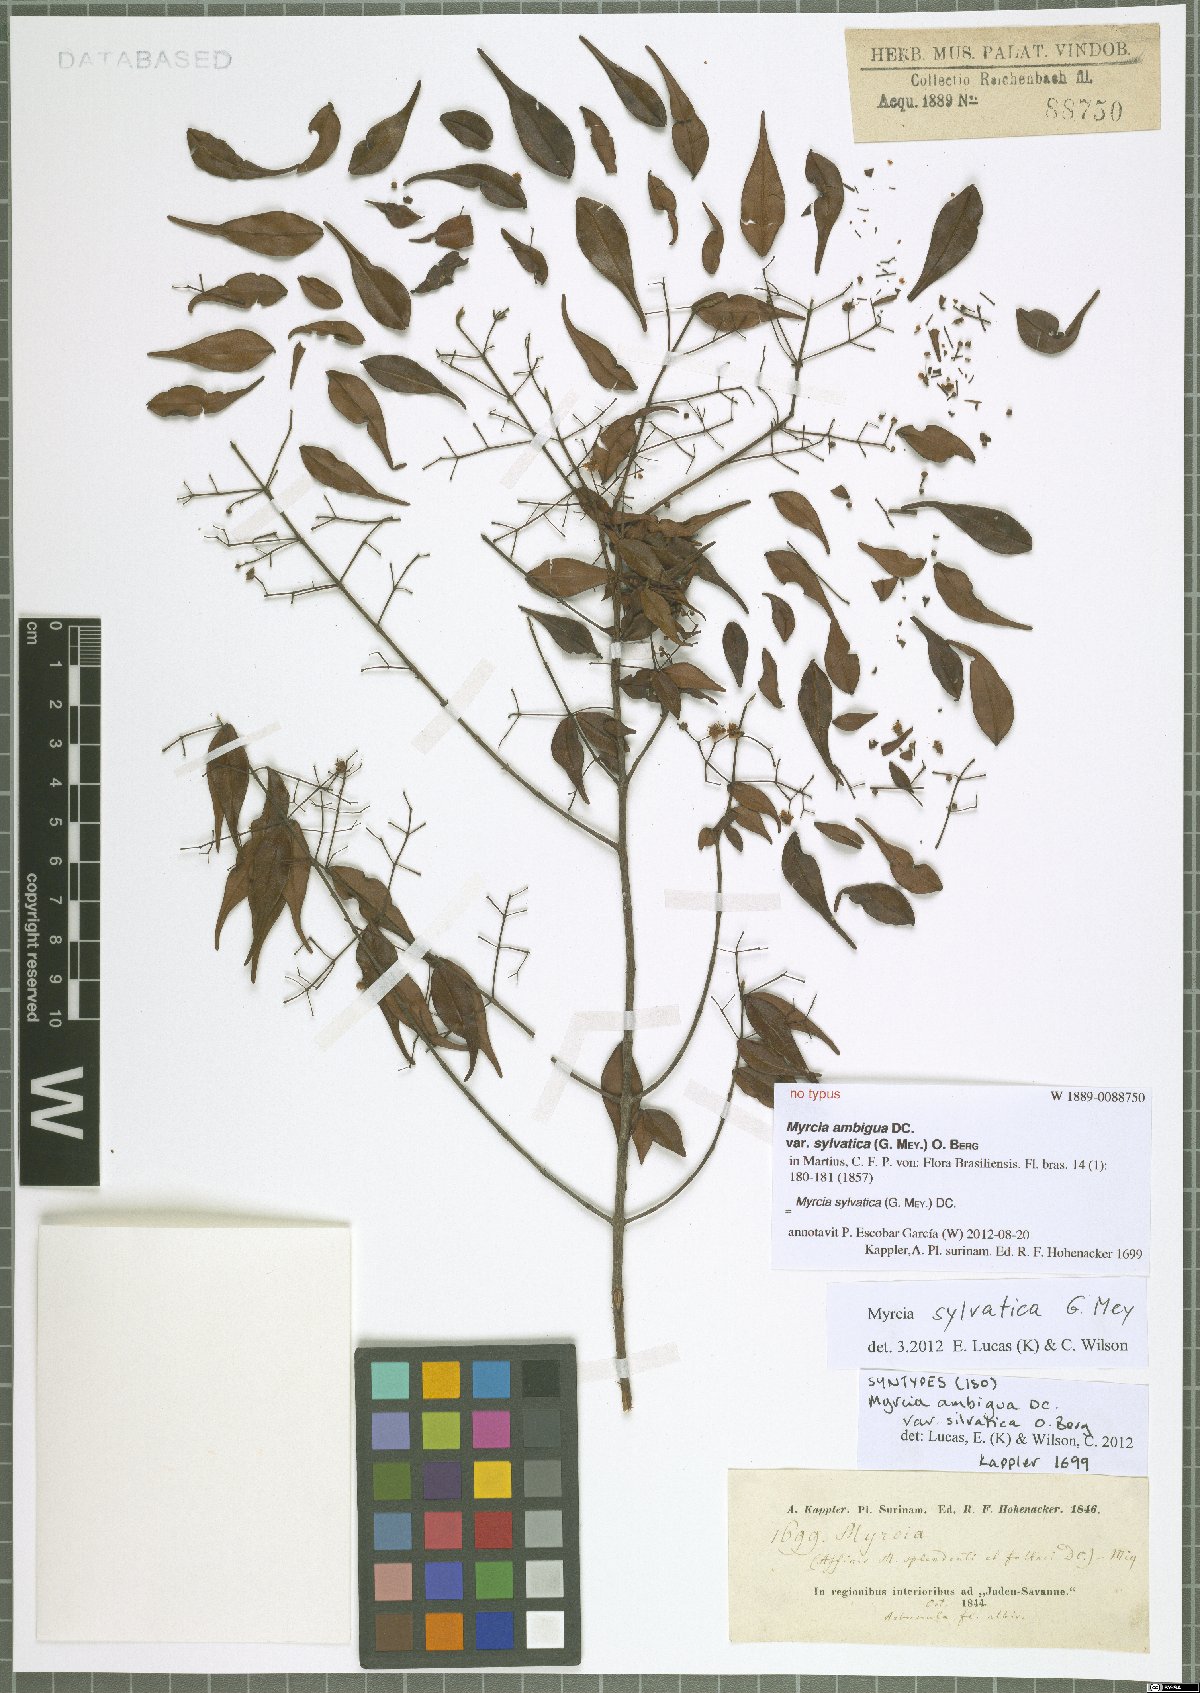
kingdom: Plantae
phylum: Tracheophyta
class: Magnoliopsida
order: Myrtales
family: Myrtaceae
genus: Myrcia
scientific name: Myrcia sylvatica
